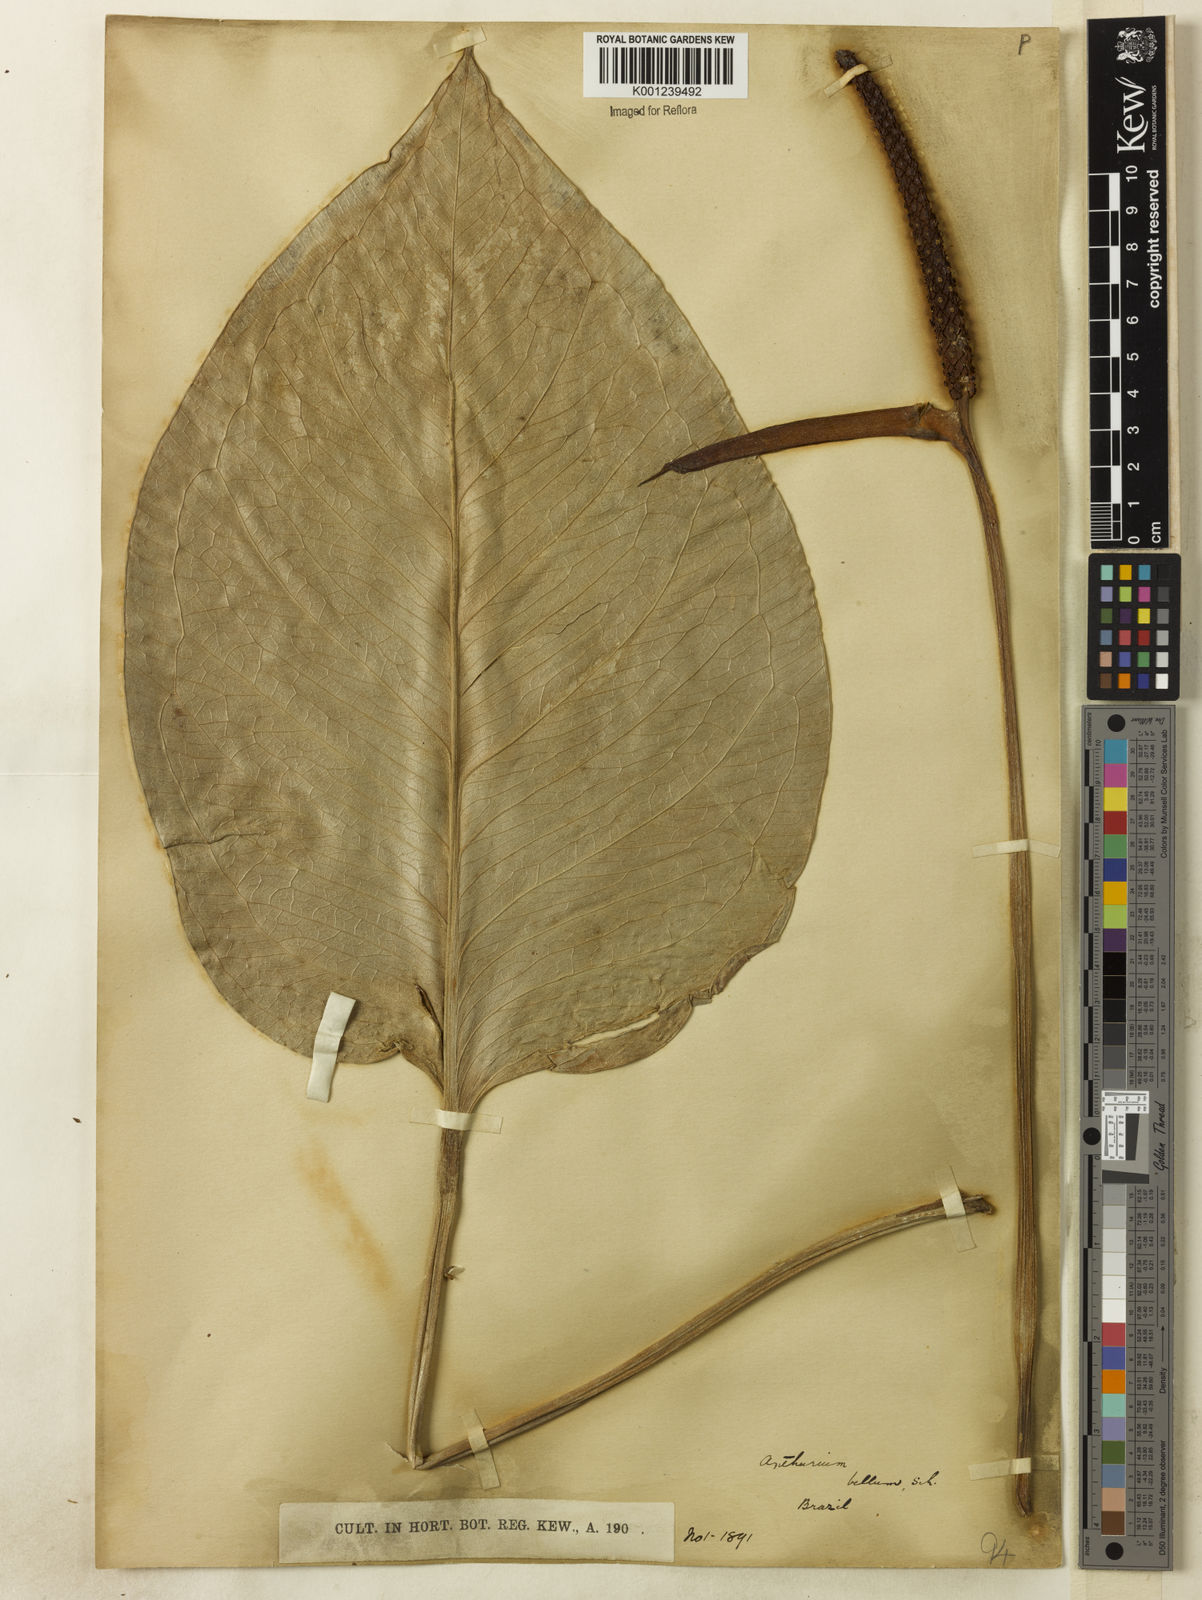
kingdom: Plantae
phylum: Tracheophyta
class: Liliopsida
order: Alismatales
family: Araceae
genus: Anthurium
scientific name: Anthurium bellum
